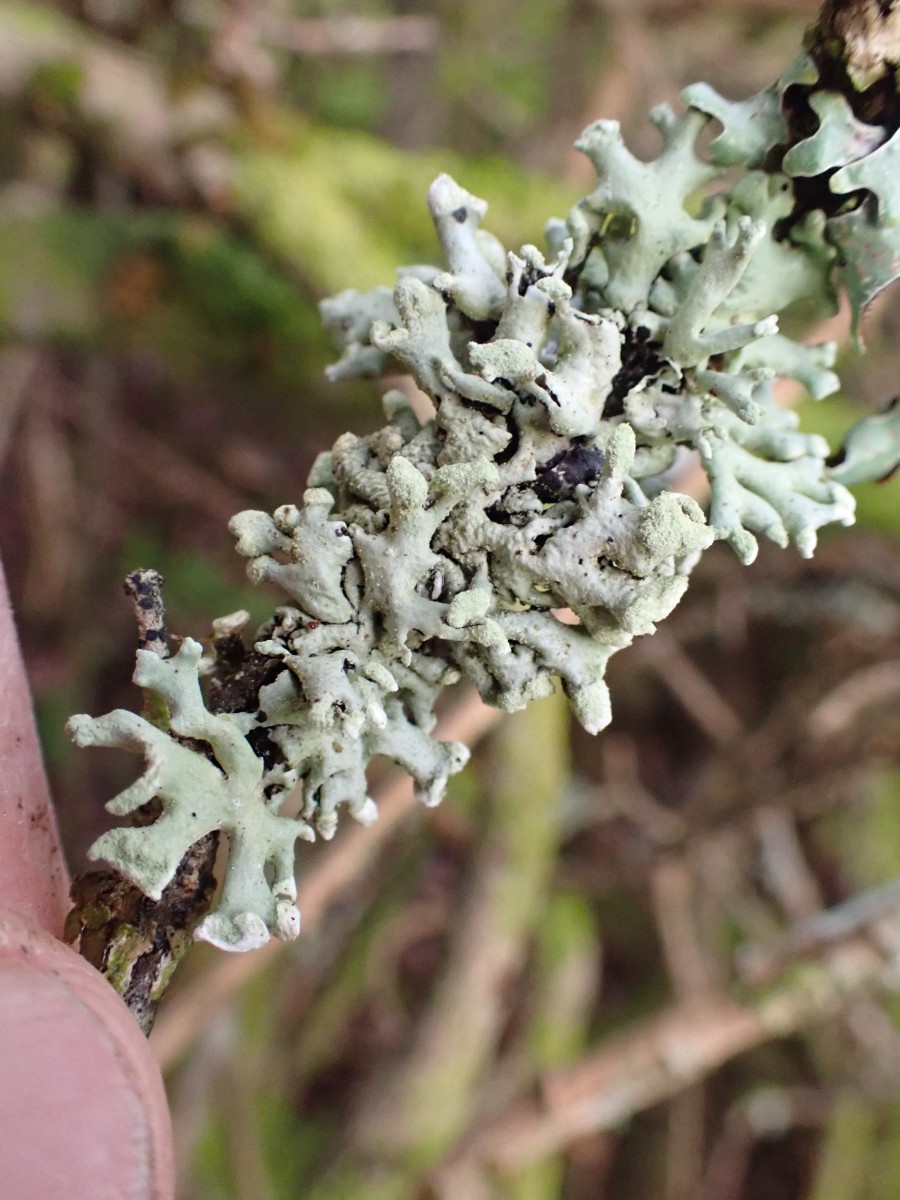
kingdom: Fungi
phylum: Ascomycota
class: Lecanoromycetes
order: Lecanorales
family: Parmeliaceae
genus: Hypogymnia
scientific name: Hypogymnia tubulosa
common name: finger-kvistlav
